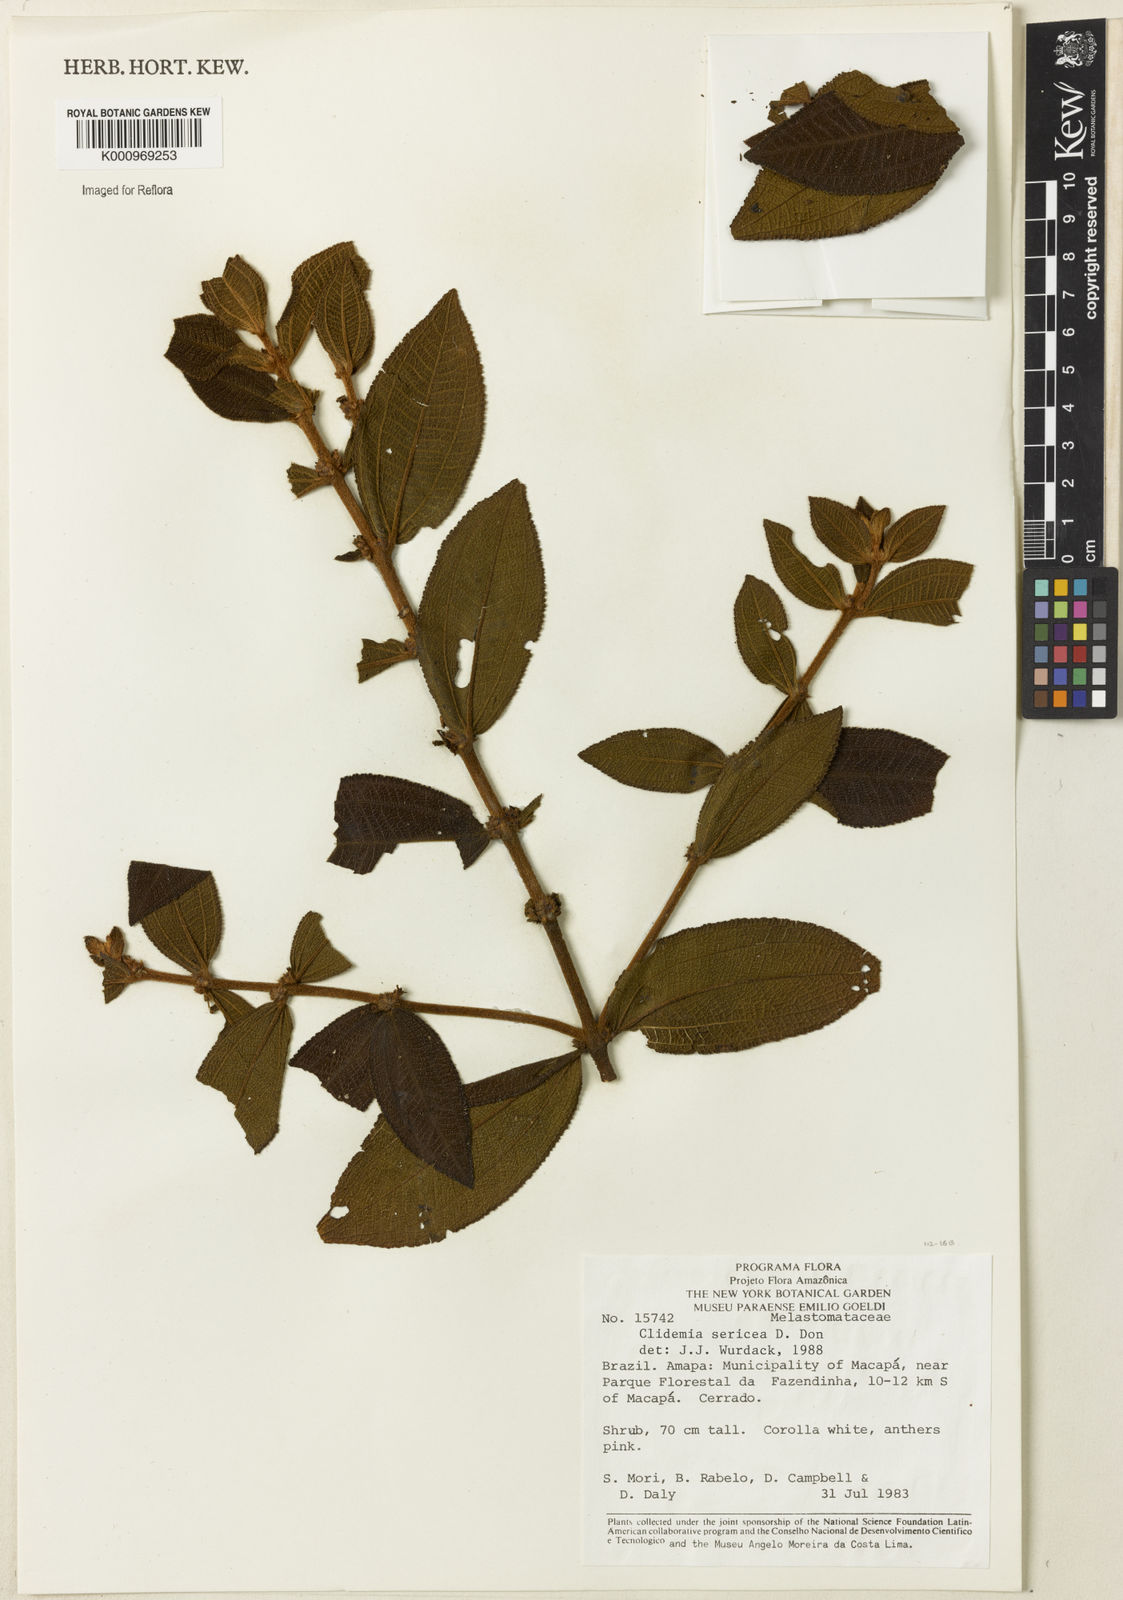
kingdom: Plantae
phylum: Tracheophyta
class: Magnoliopsida
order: Myrtales
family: Melastomataceae
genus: Miconia
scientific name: Miconia sericea
